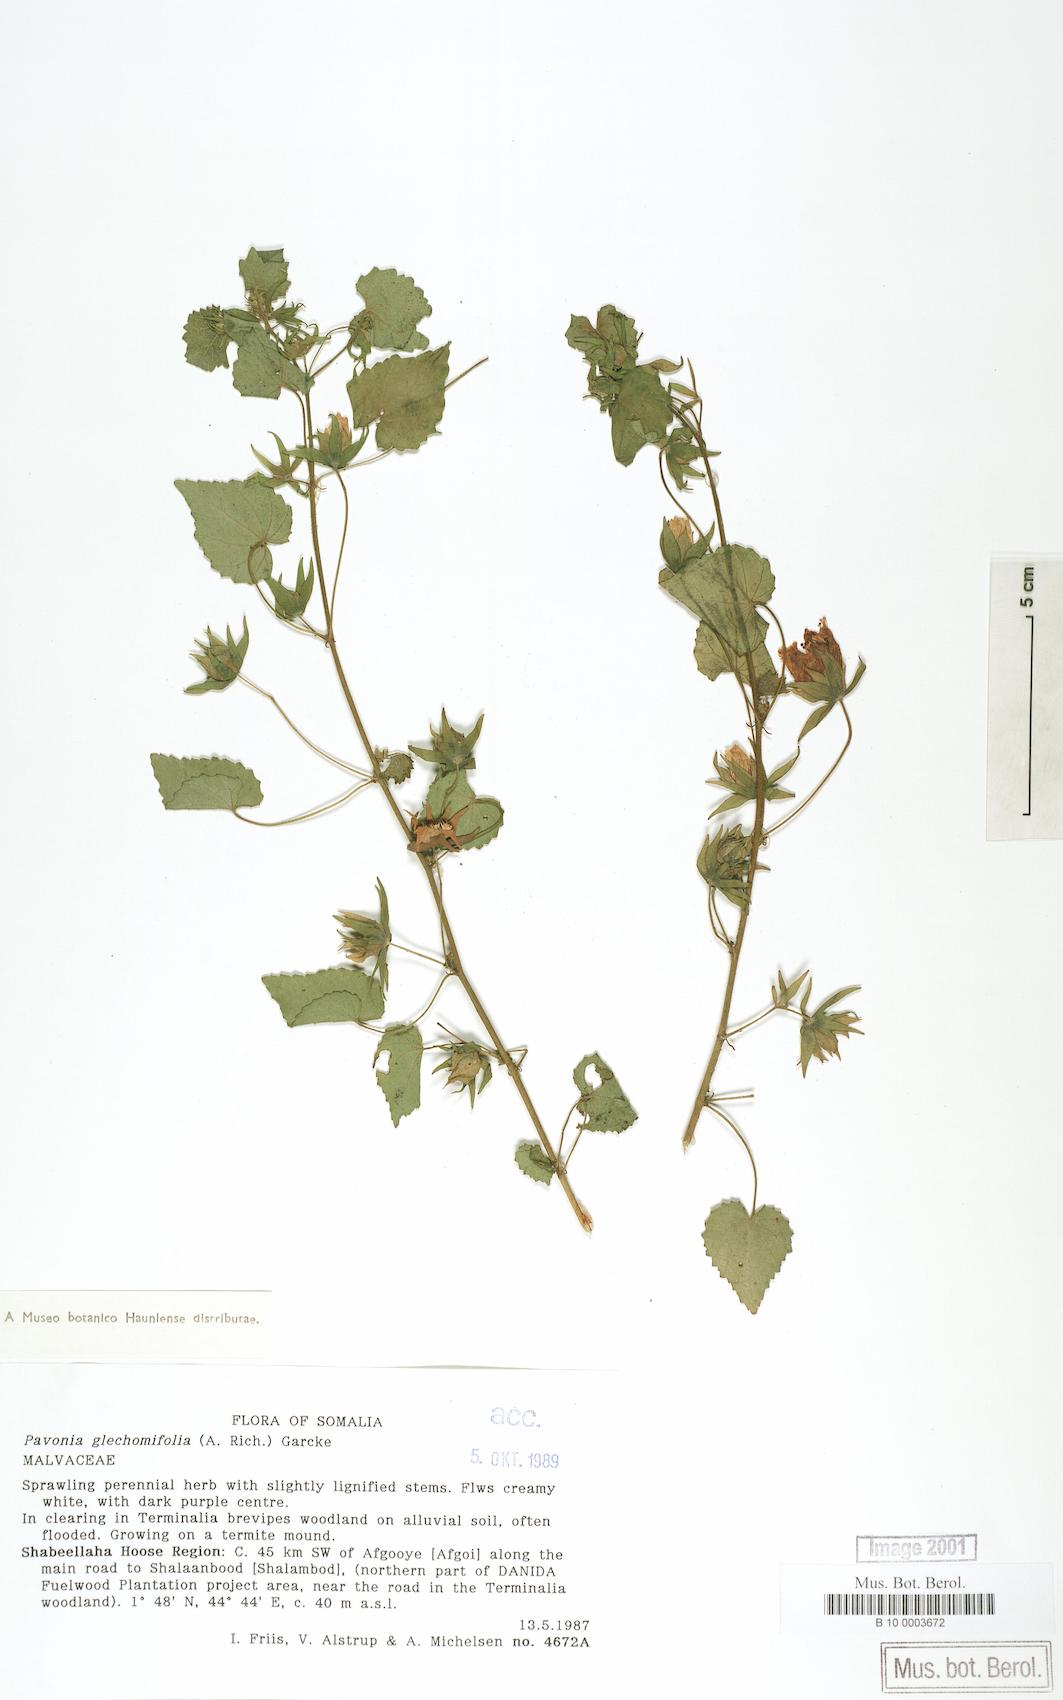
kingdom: Plantae
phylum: Tracheophyta
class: Magnoliopsida
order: Malvales
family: Malvaceae
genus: Pavonia
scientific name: Pavonia flavoferruginea
